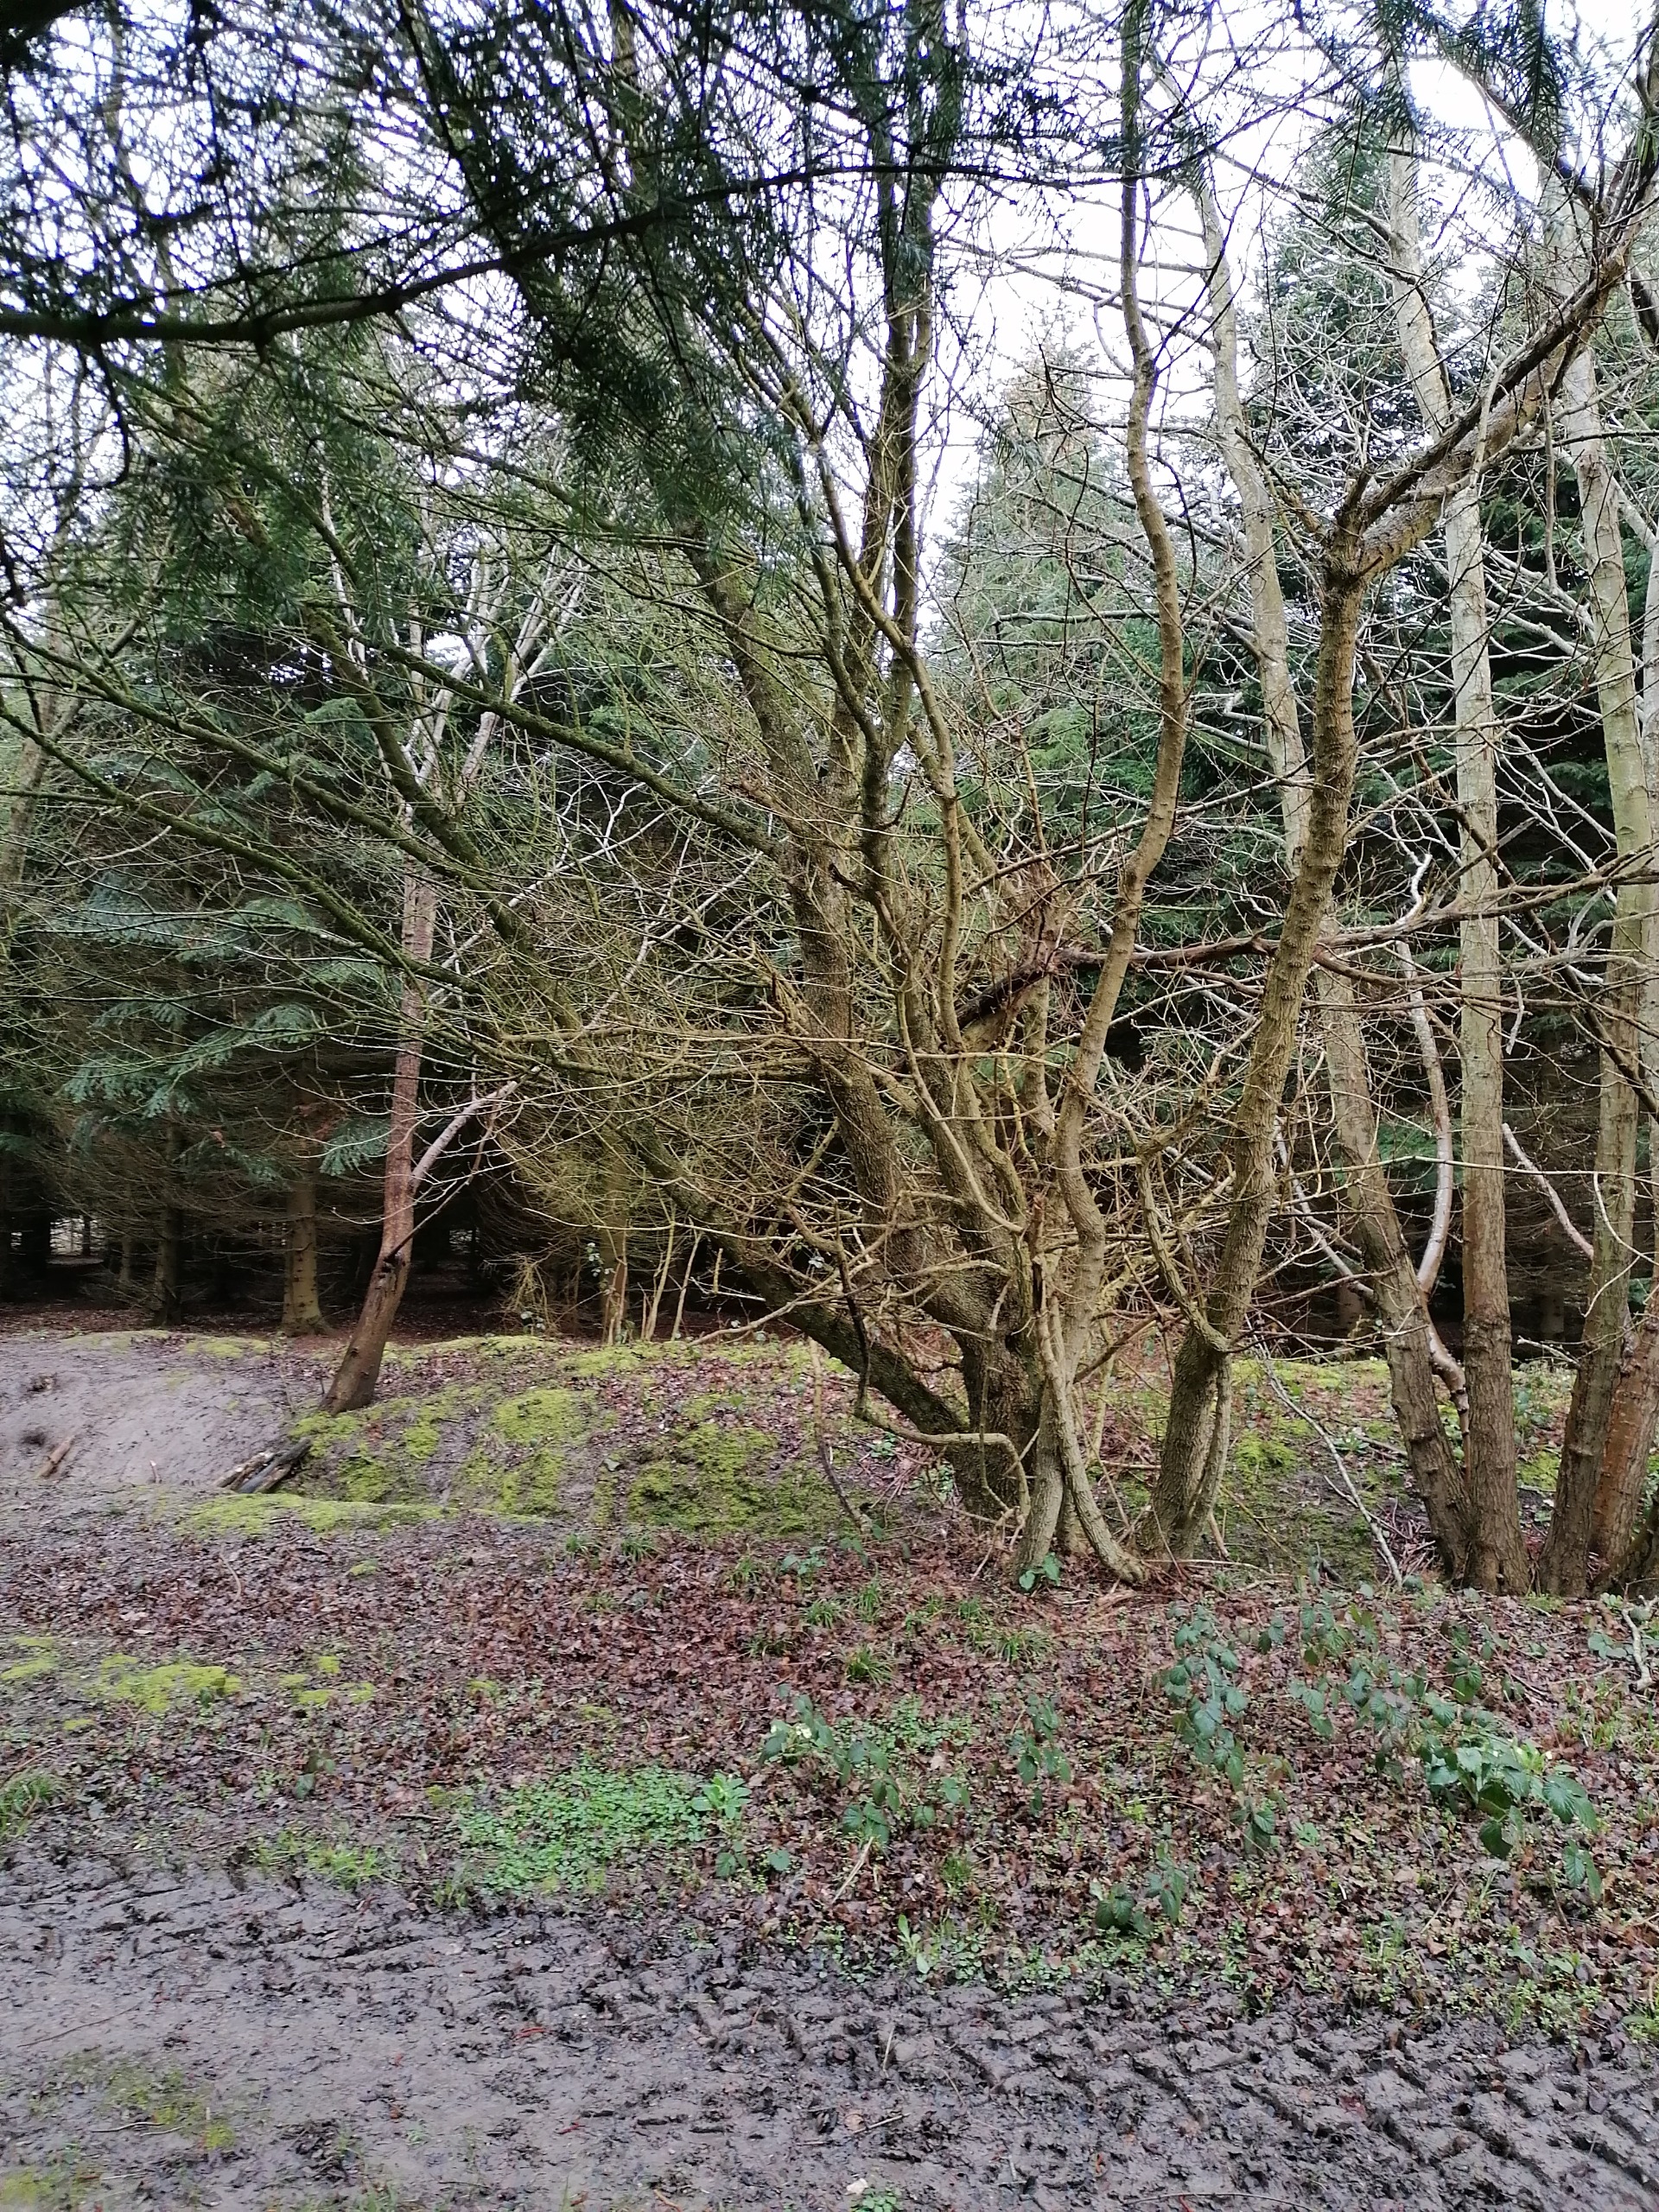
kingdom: Plantae
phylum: Tracheophyta
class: Magnoliopsida
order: Sapindales
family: Sapindaceae
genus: Acer
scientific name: Acer campestre
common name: Navr
